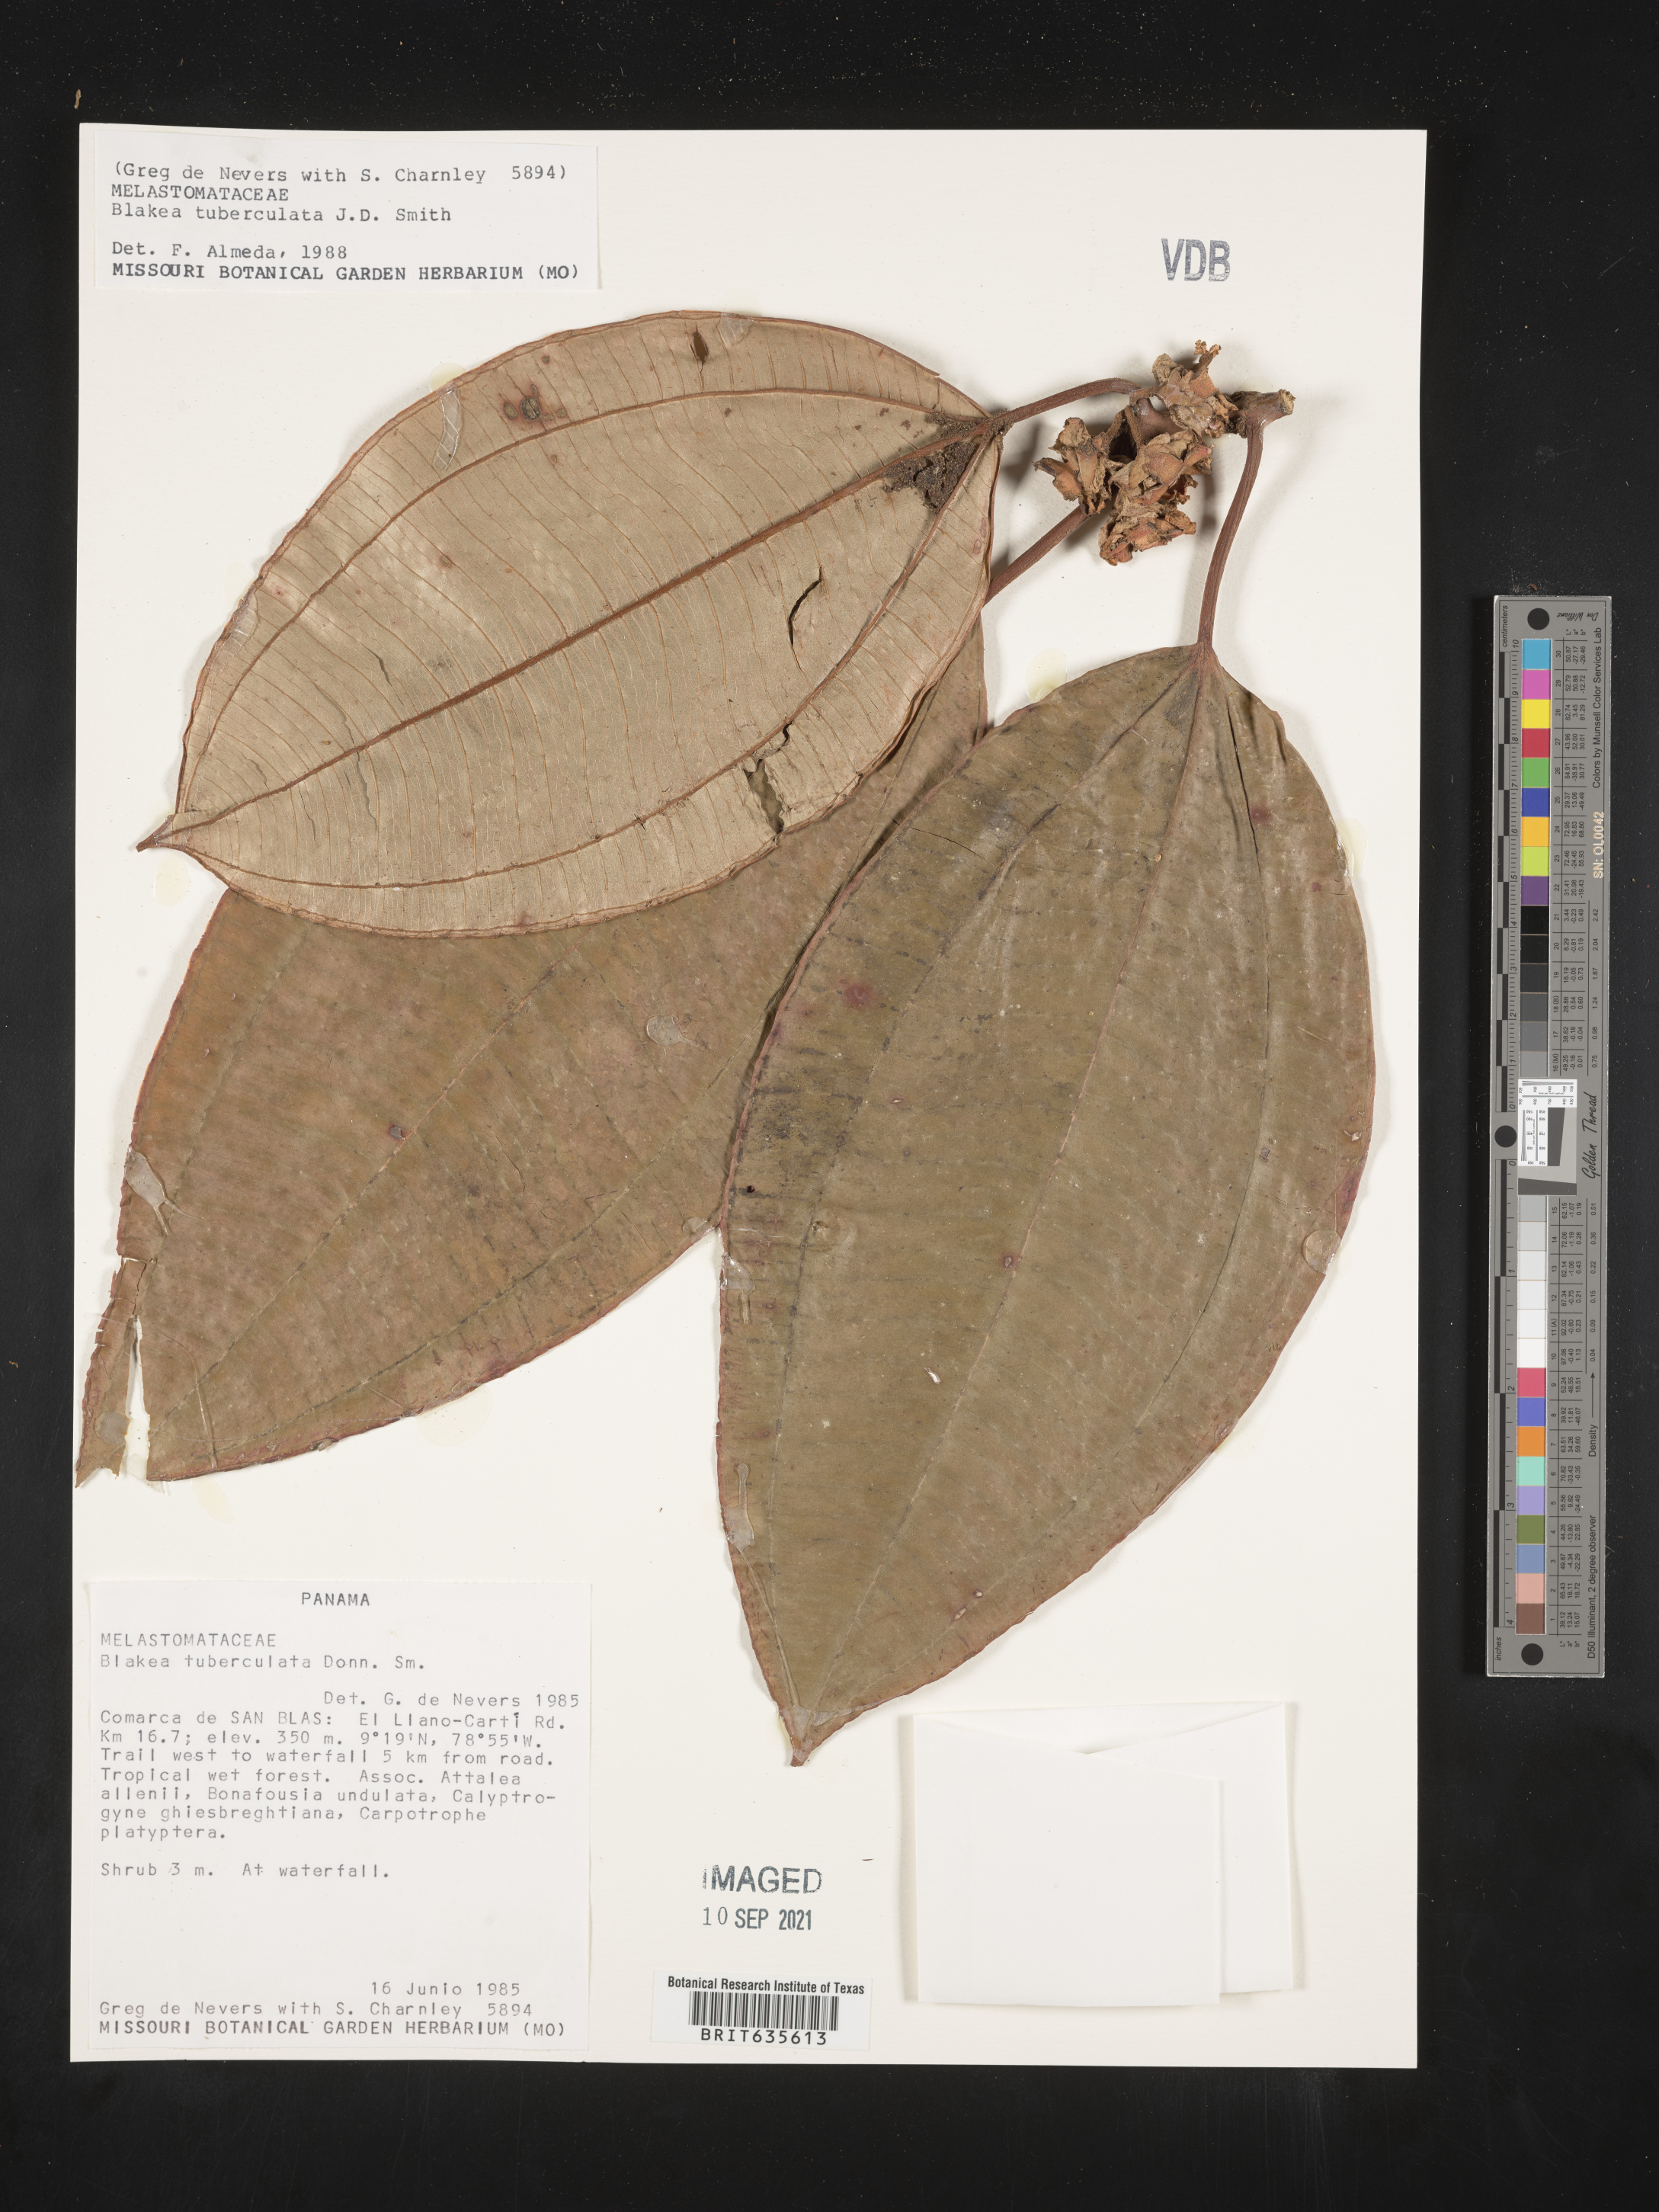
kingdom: Plantae
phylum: Tracheophyta
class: Magnoliopsida
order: Myrtales
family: Melastomataceae
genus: Blakea
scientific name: Blakea
